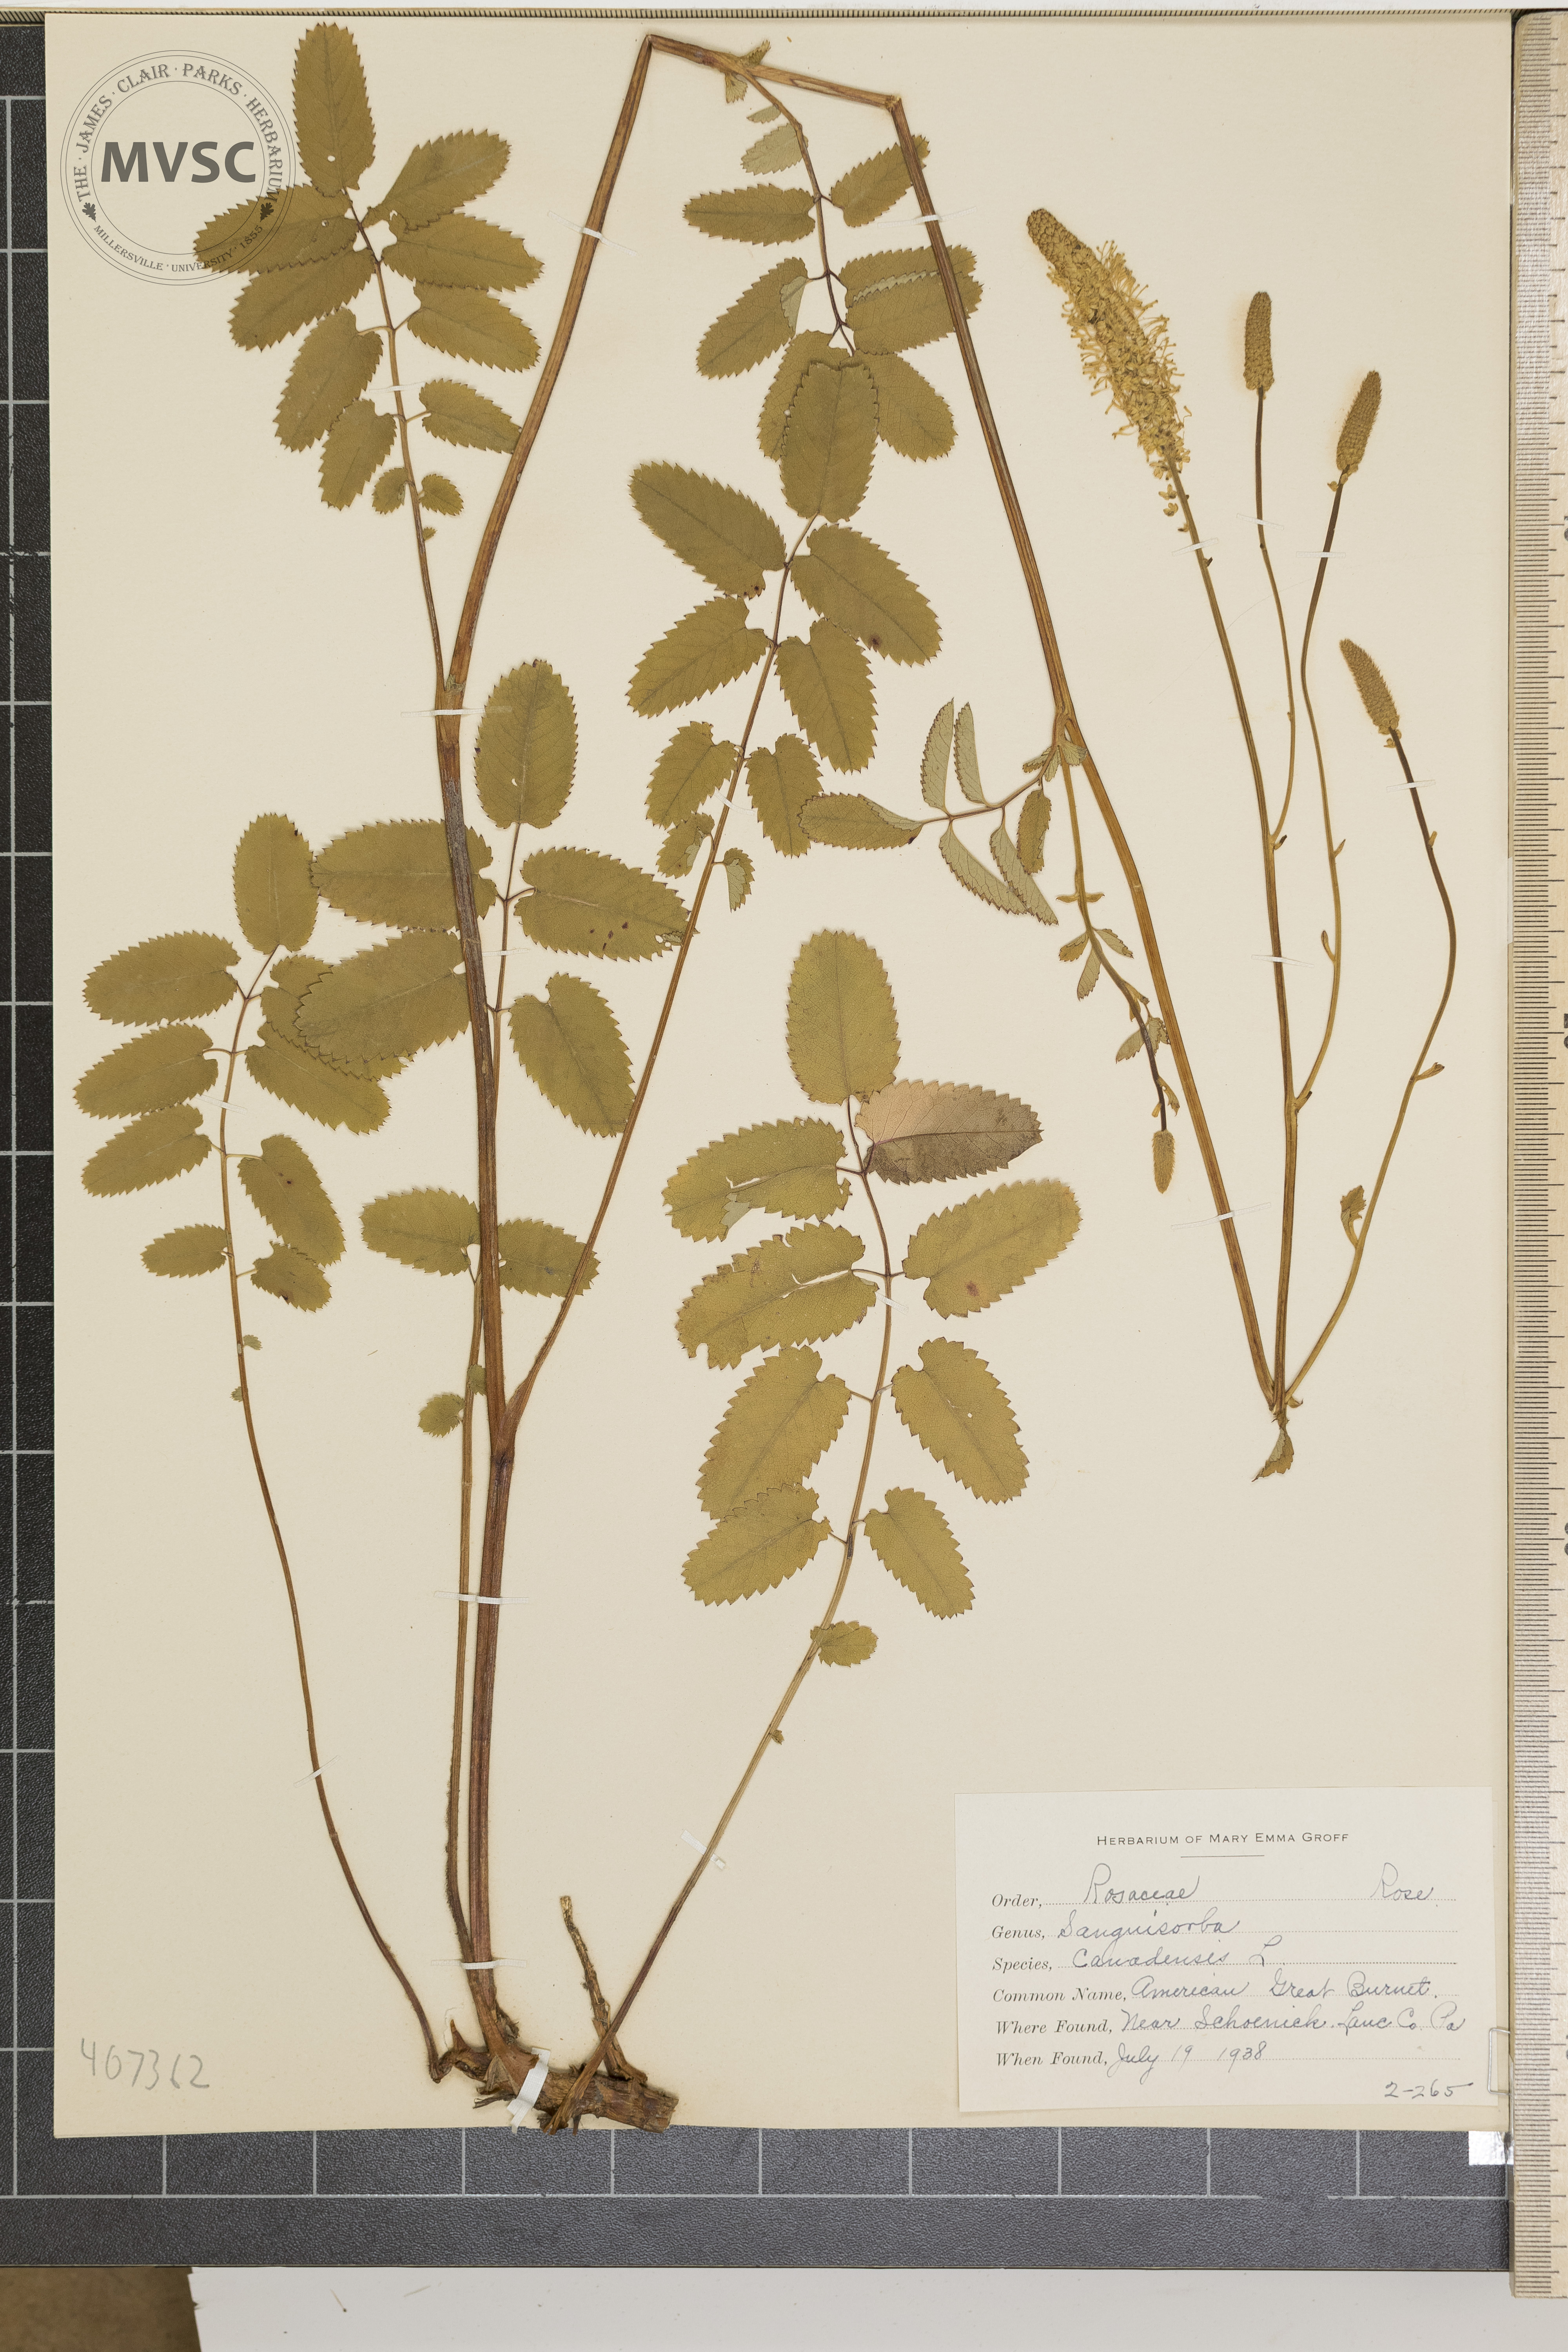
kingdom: Plantae
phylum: Tracheophyta
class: Magnoliopsida
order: Rosales
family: Rosaceae
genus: Sanguisorba
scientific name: Sanguisorba canadensis
